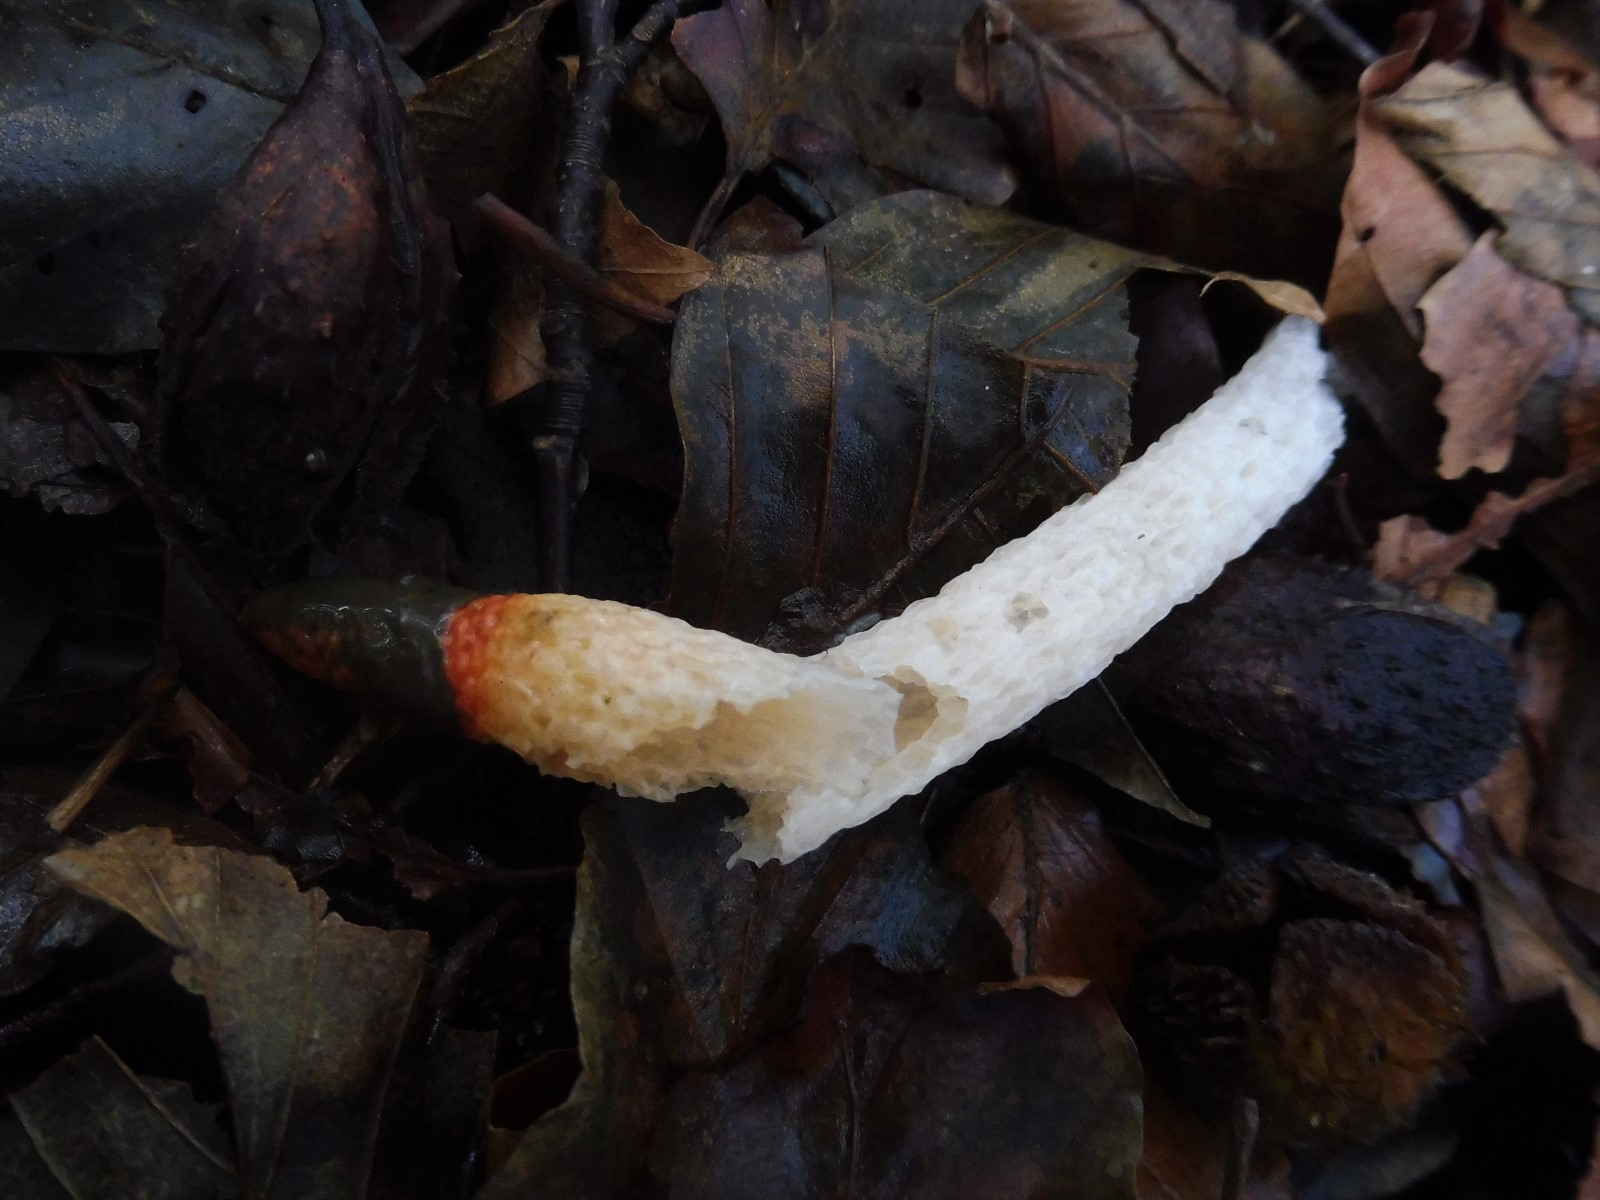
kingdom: Fungi
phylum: Basidiomycota
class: Agaricomycetes
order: Phallales
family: Phallaceae
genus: Mutinus
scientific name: Mutinus caninus
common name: hunde-stinksvamp
